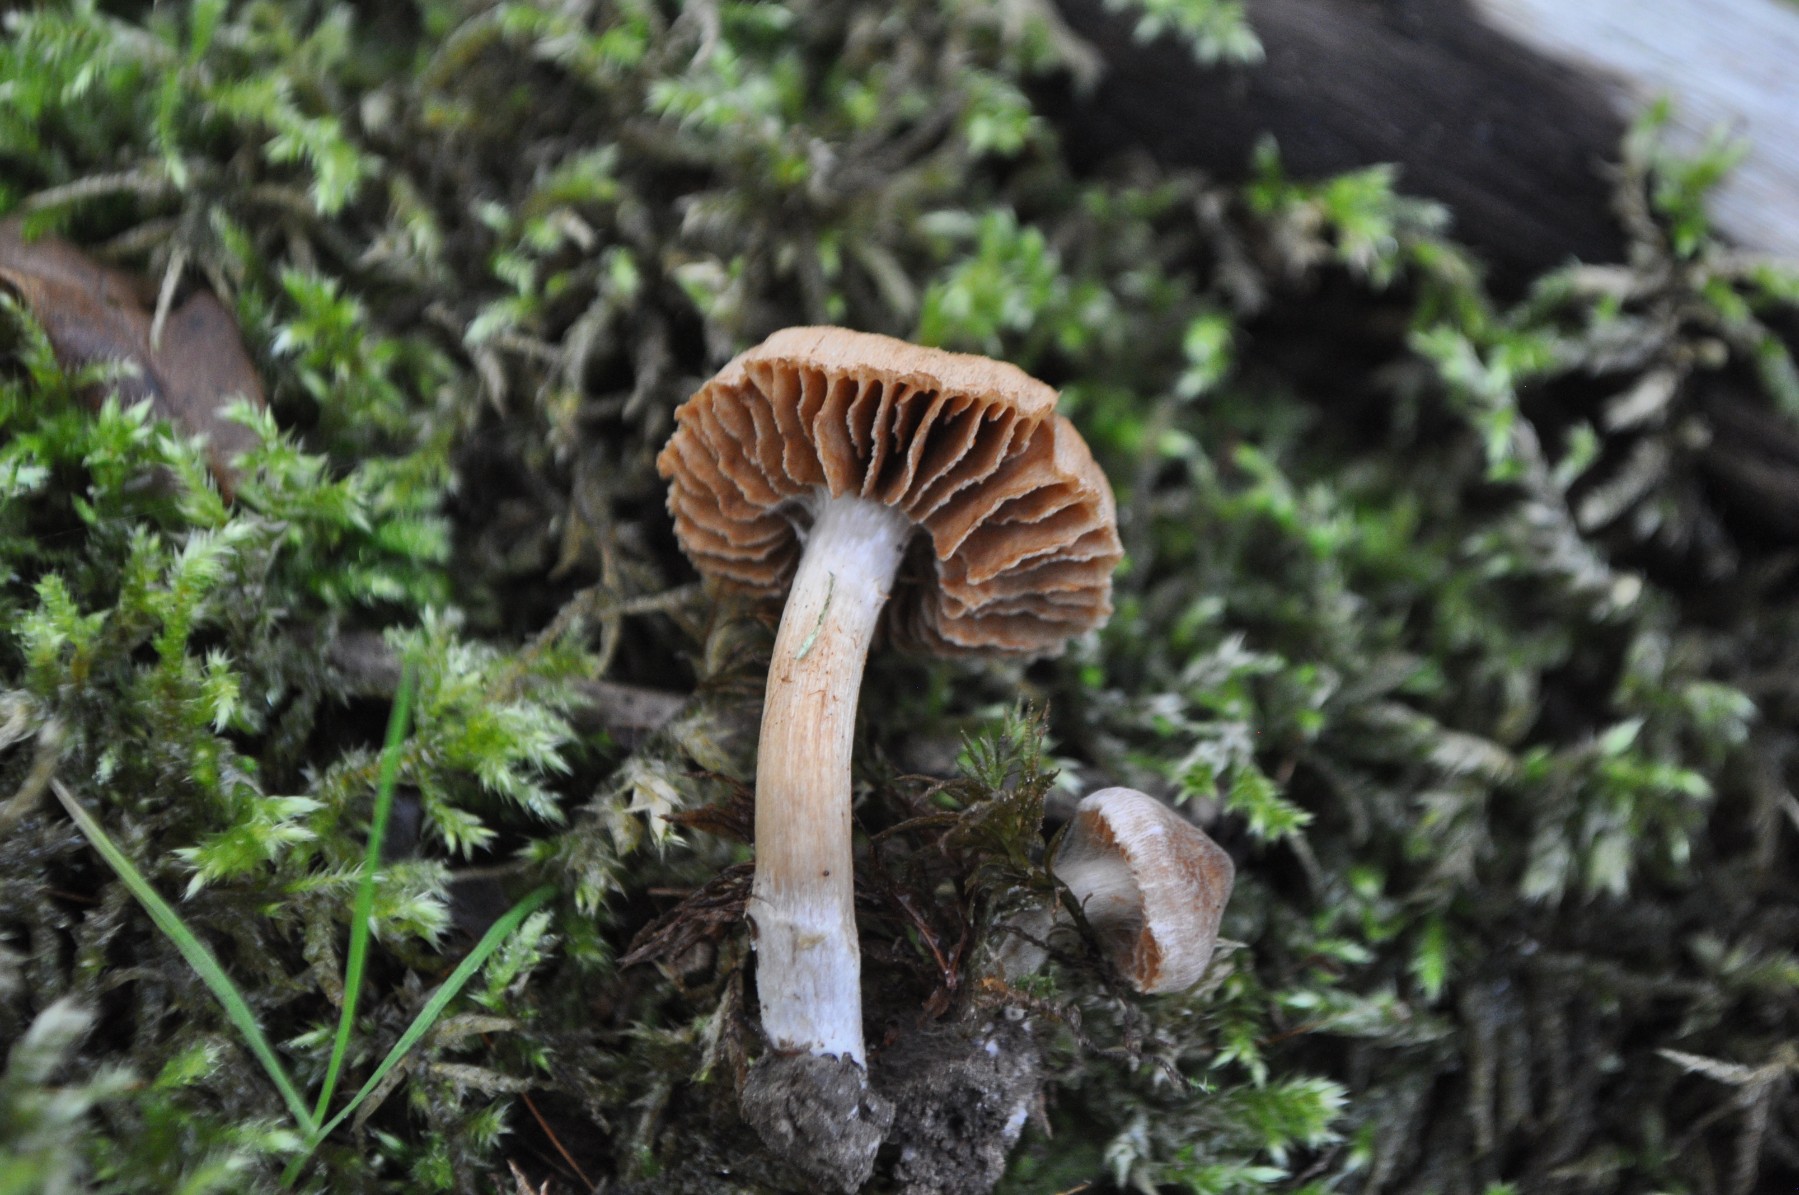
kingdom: Fungi
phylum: Basidiomycota
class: Agaricomycetes
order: Agaricales
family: Cortinariaceae
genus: Cortinarius
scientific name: Cortinarius
